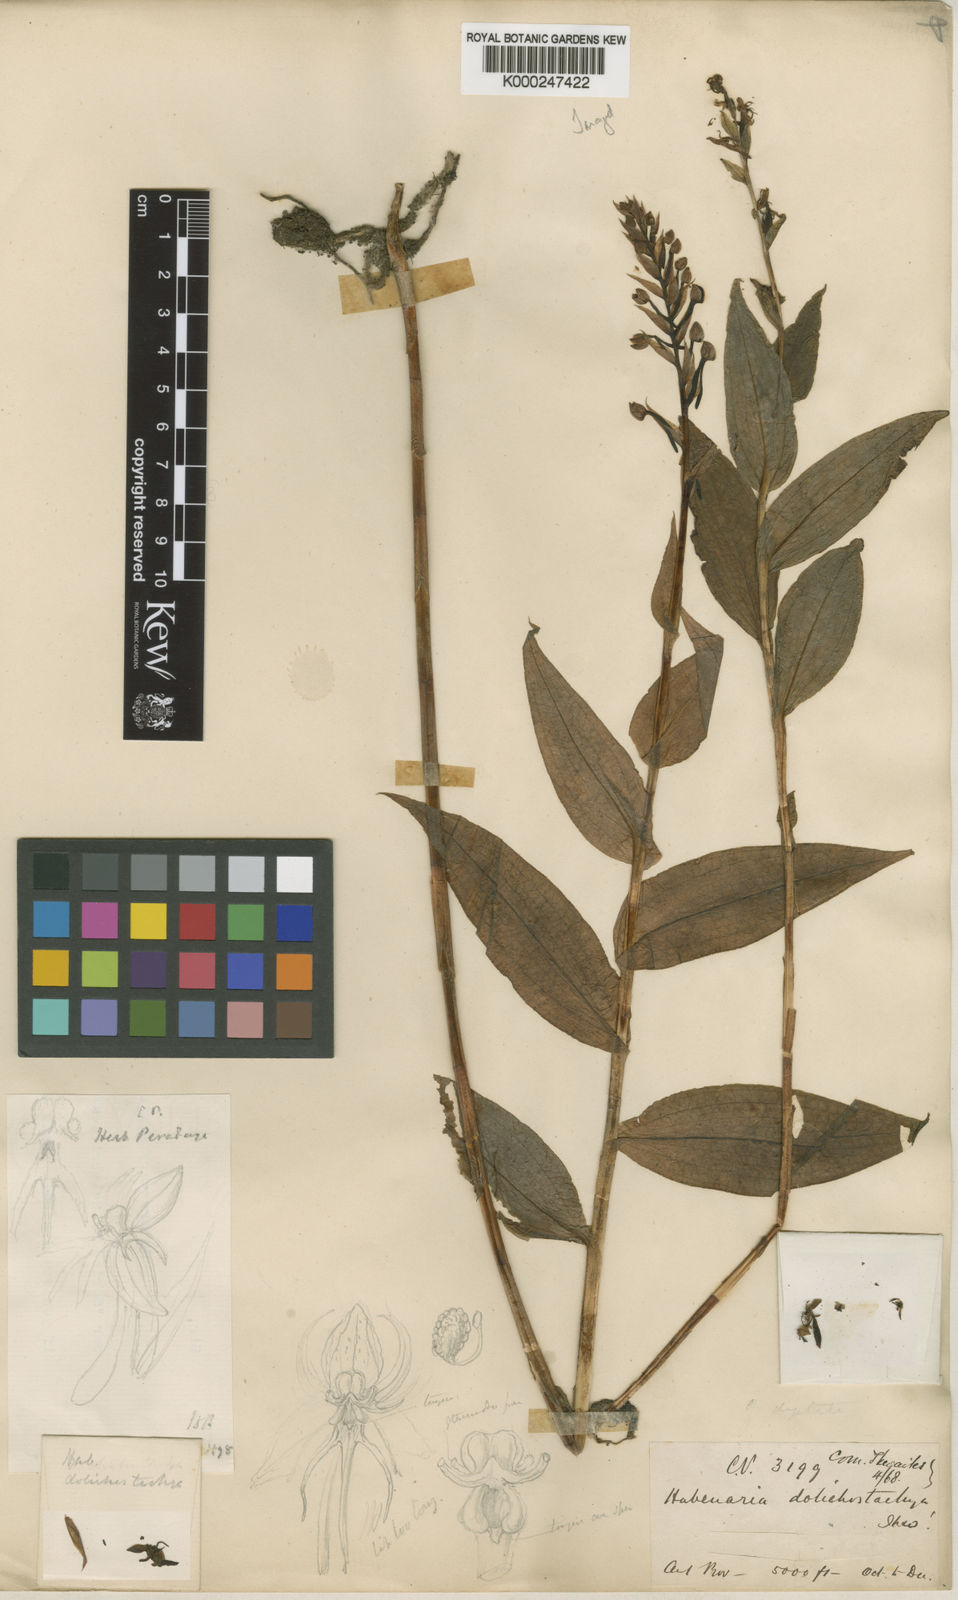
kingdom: Plantae
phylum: Tracheophyta
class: Liliopsida
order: Asparagales
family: Orchidaceae
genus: Habenaria
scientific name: Habenaria dolichostachya
